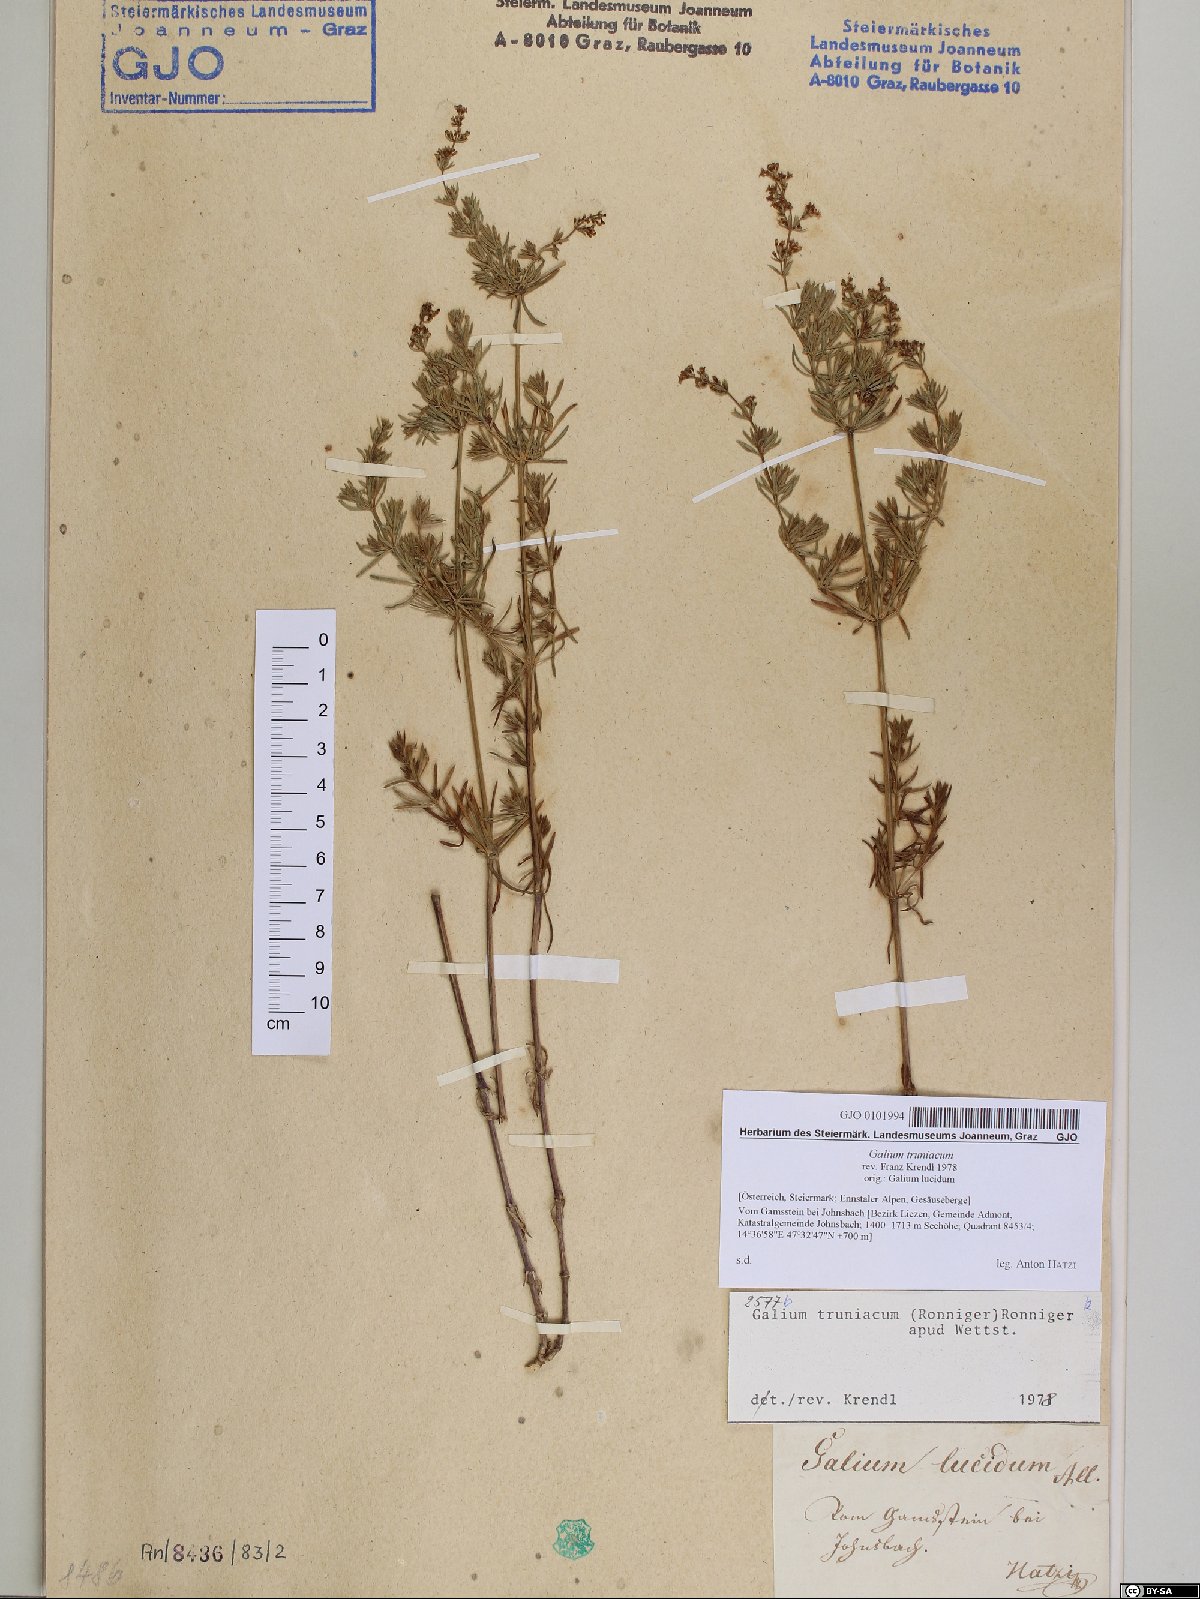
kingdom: Plantae
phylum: Tracheophyta
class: Magnoliopsida
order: Gentianales
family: Rubiaceae
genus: Galium
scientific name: Galium truniacum
